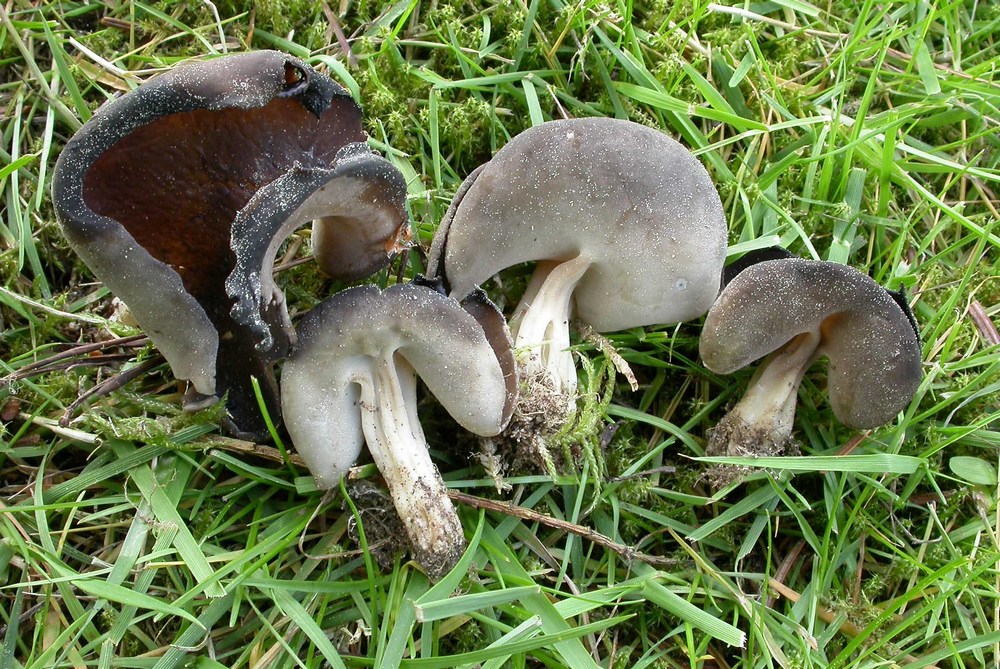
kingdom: Fungi
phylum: Ascomycota
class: Pezizomycetes
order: Pezizales
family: Helvellaceae
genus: Helvella
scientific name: Helvella solitaria
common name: Quélets foldhat
